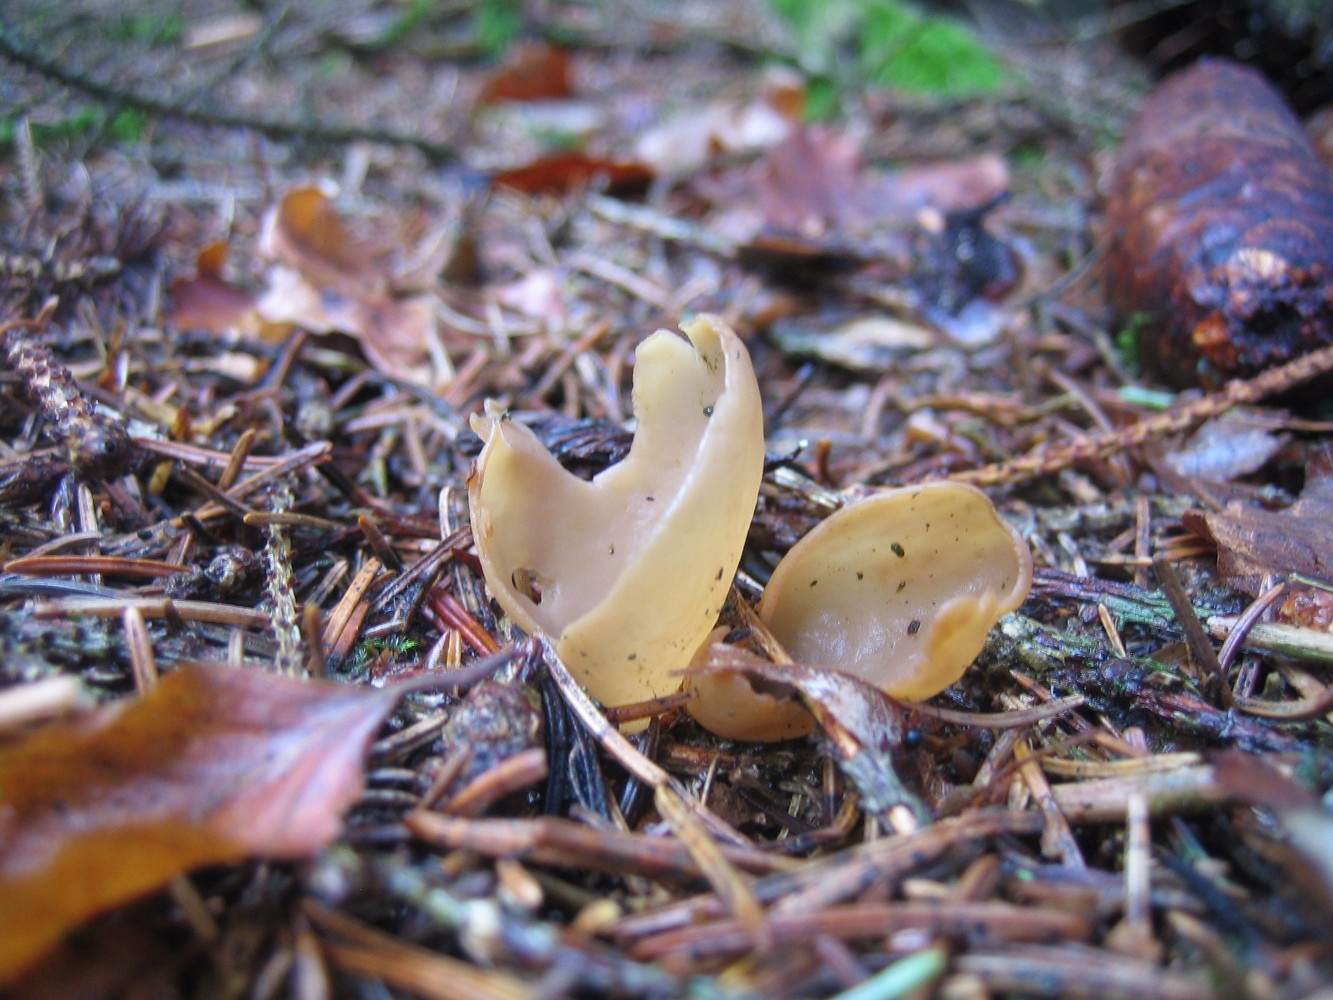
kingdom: Fungi
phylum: Ascomycota
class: Pezizomycetes
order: Pezizales
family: Otideaceae
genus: Otidea
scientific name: Otidea leporina
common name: hare-ørebæger
